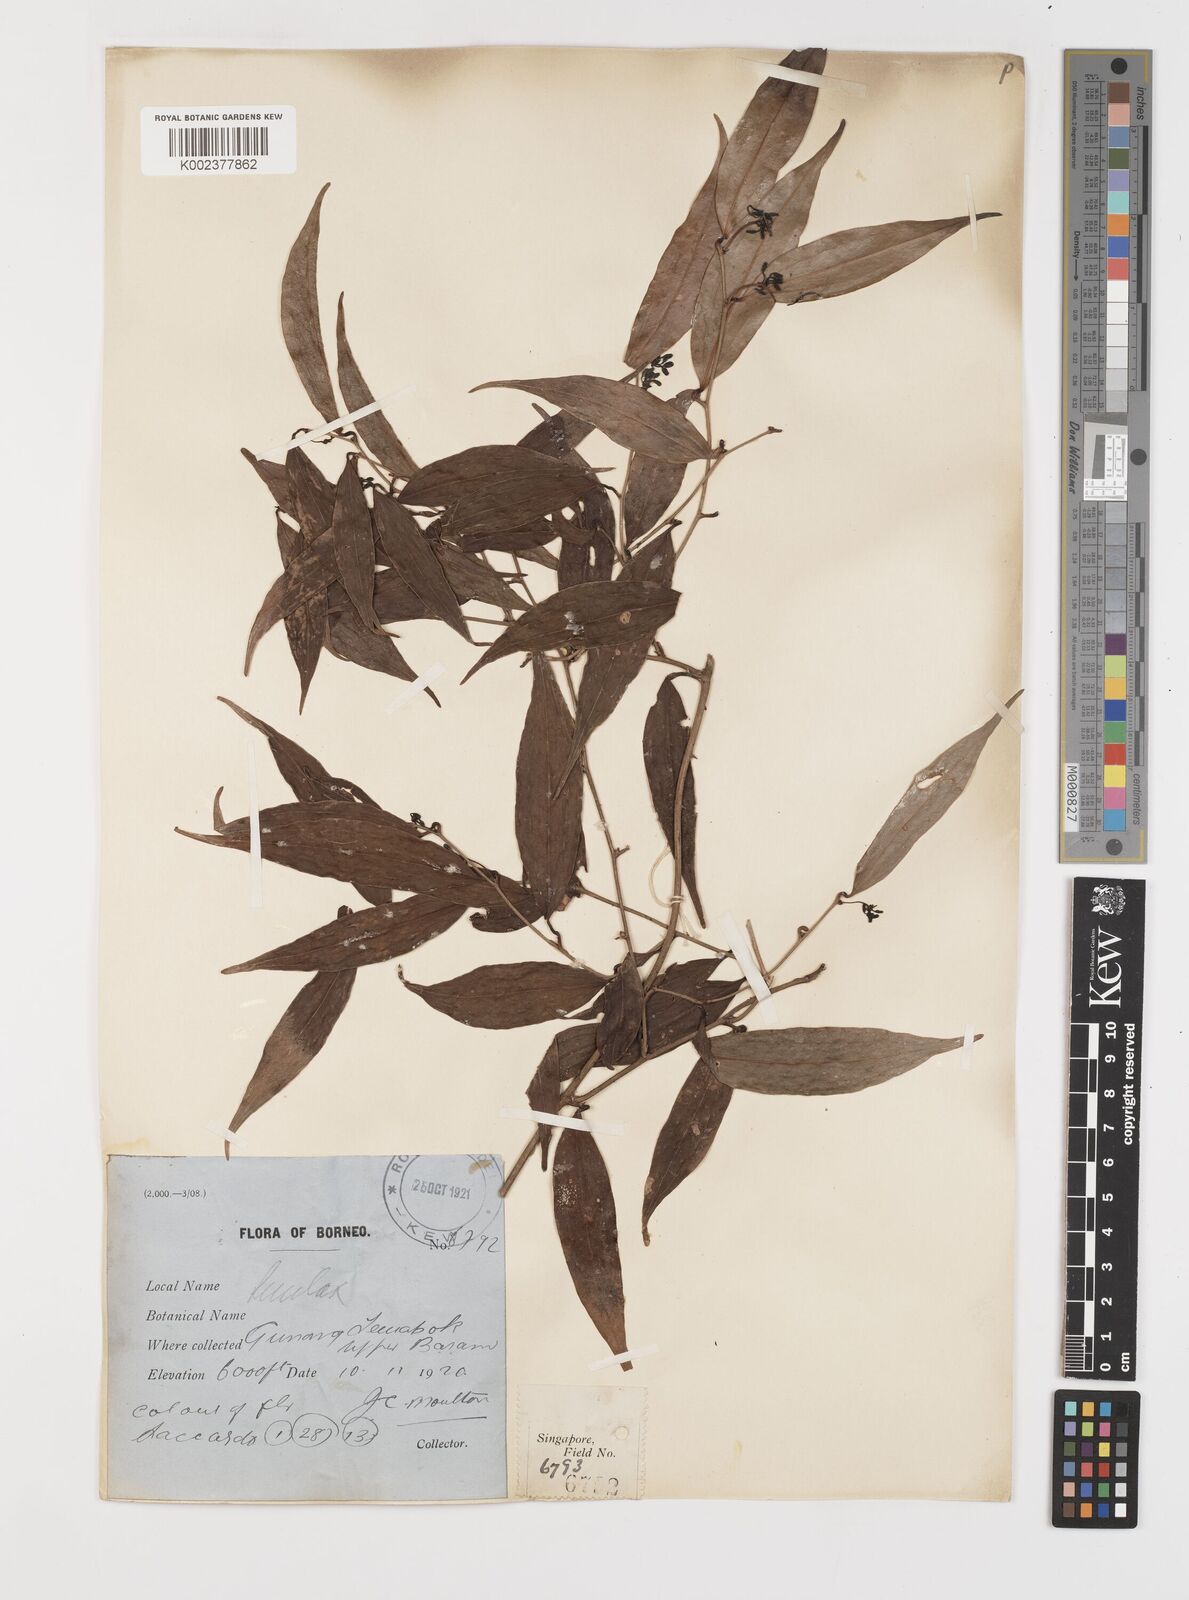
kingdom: Plantae
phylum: Tracheophyta
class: Liliopsida
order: Liliales
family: Smilacaceae
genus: Smilax
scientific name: Smilax
